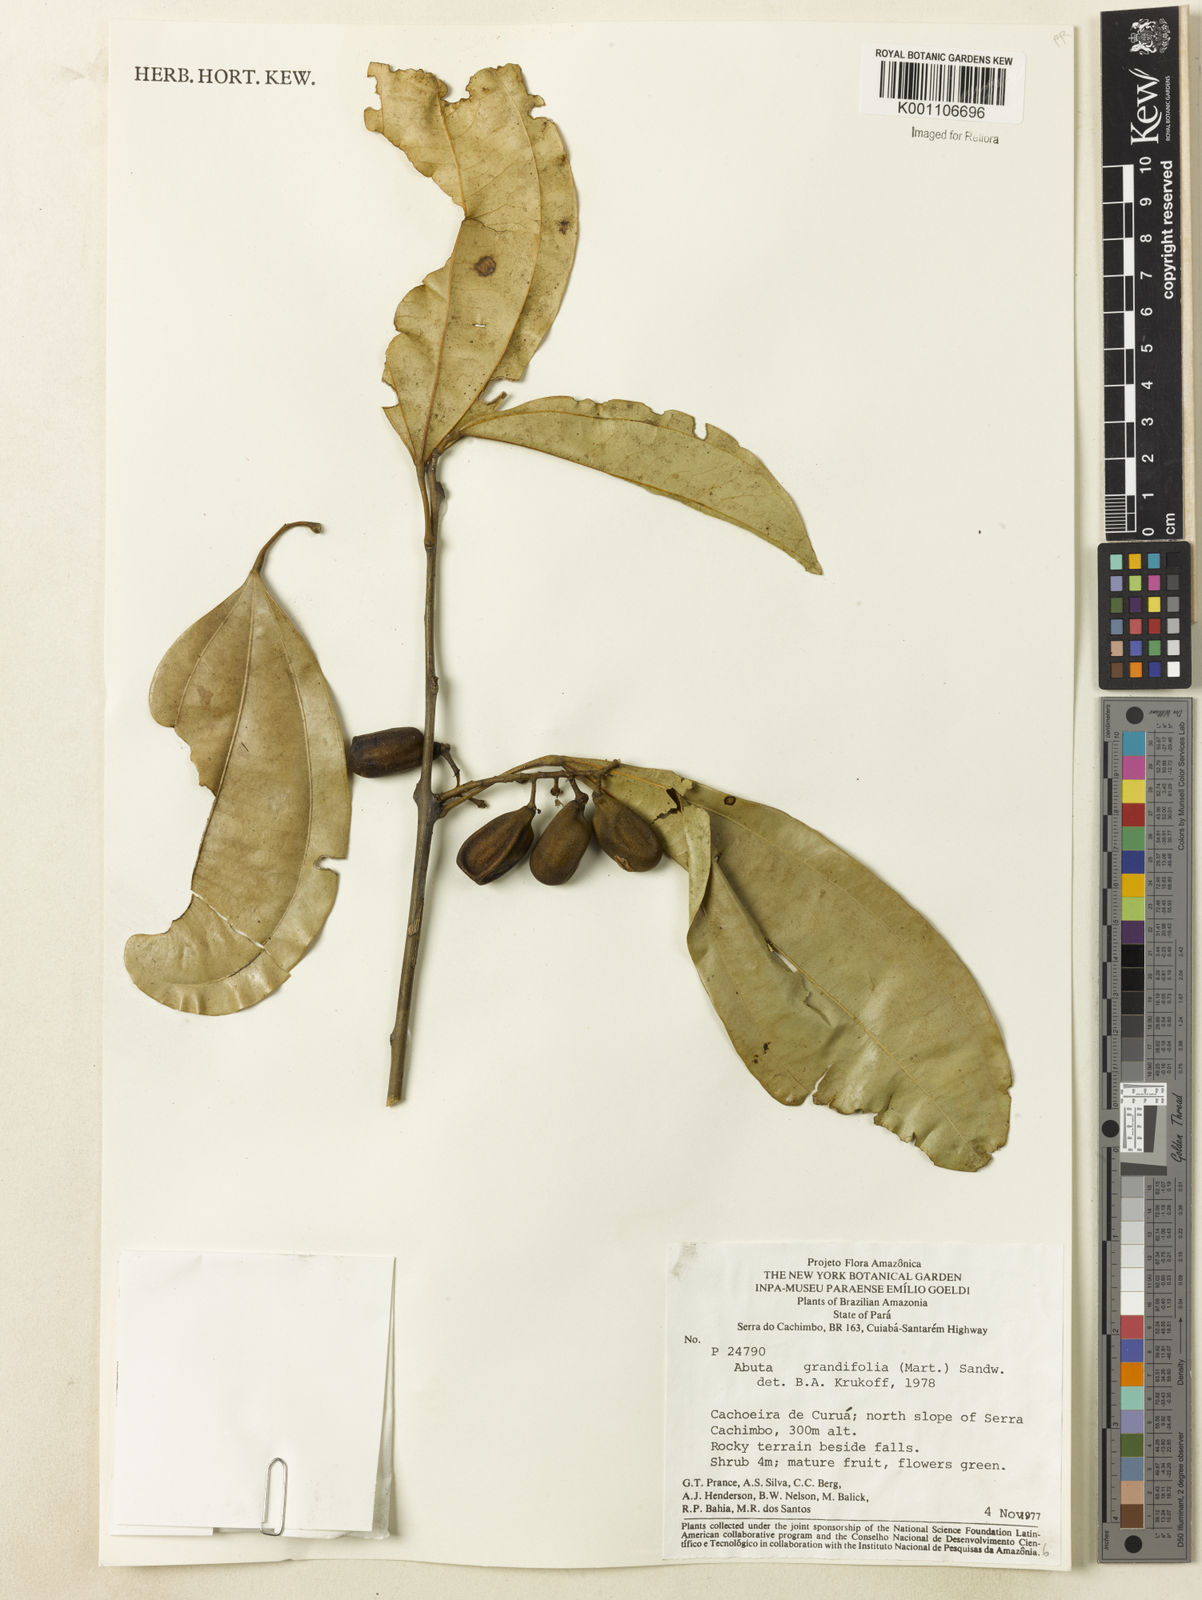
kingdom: Plantae
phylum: Tracheophyta
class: Magnoliopsida
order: Ranunculales
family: Menispermaceae
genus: Abuta
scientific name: Abuta grandifolia
